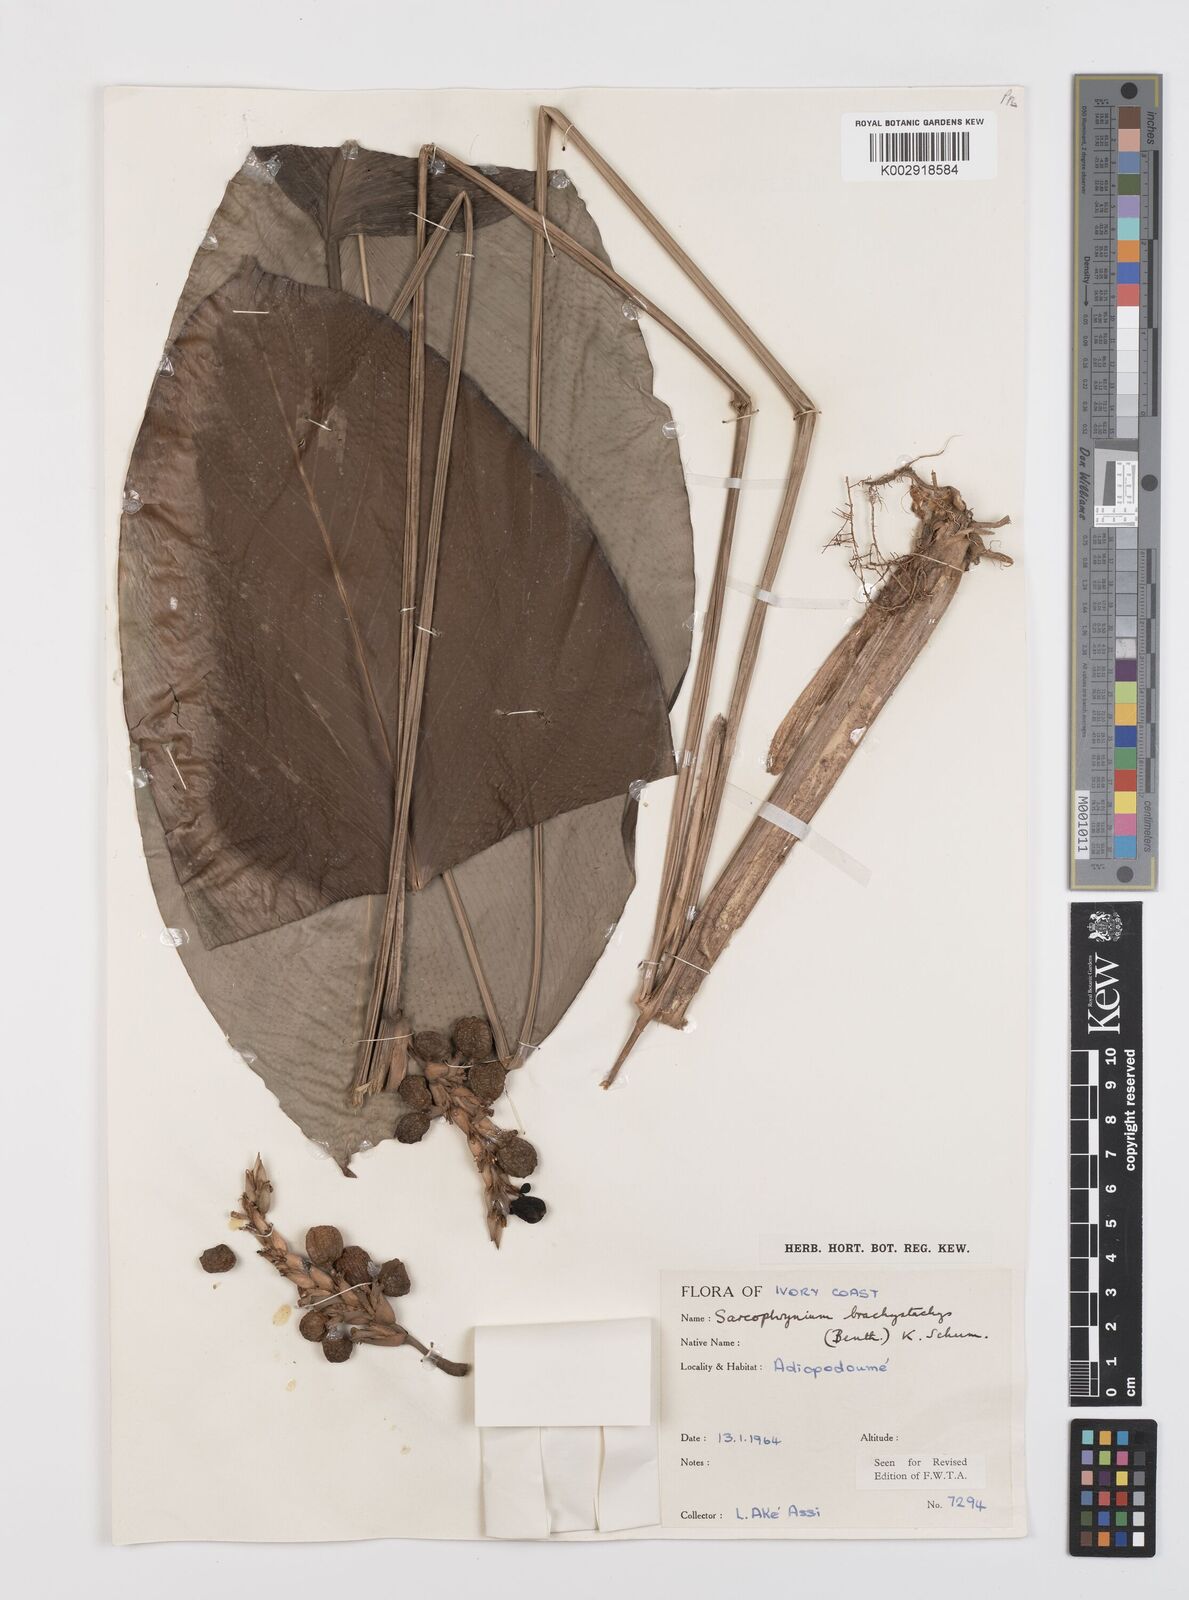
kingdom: Plantae
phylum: Tracheophyta
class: Liliopsida
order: Zingiberales
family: Marantaceae
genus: Sarcophrynium
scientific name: Sarcophrynium brachystachyum
